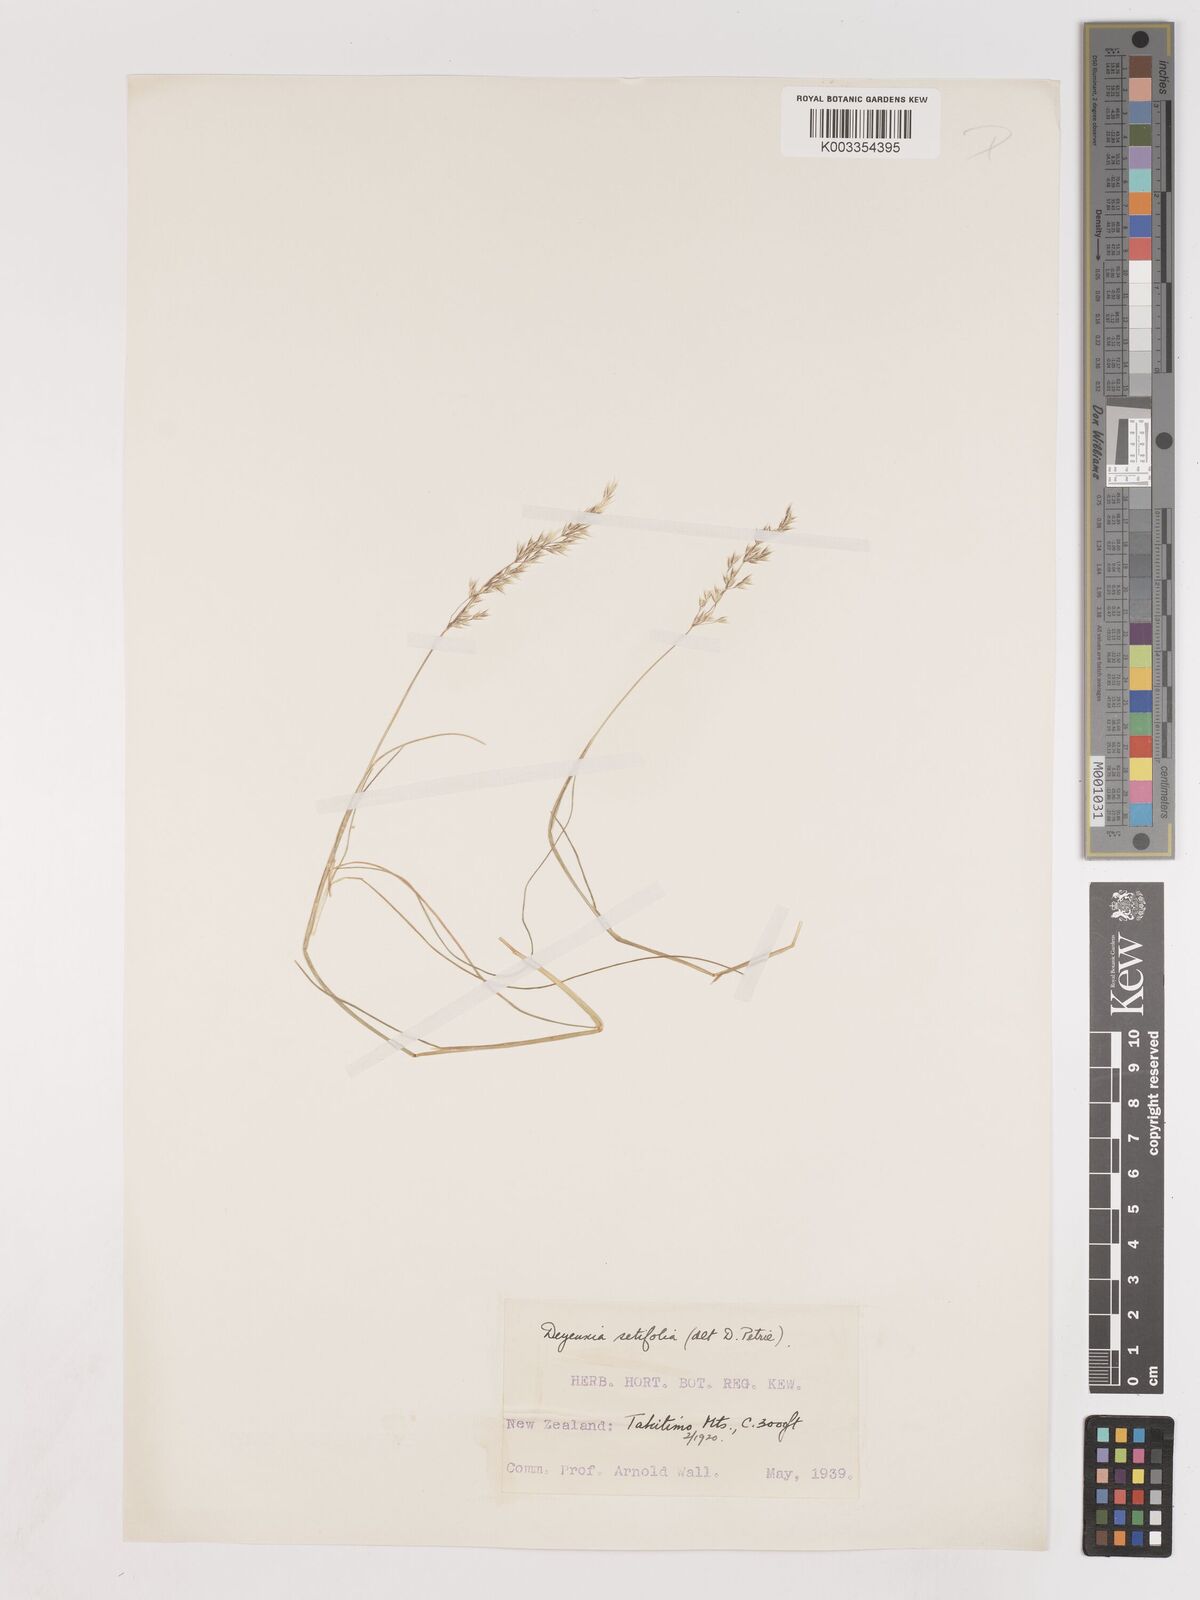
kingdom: Plantae
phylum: Tracheophyta
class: Liliopsida
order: Poales
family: Poaceae
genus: Agrostis
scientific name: Agrostis aucklandica
